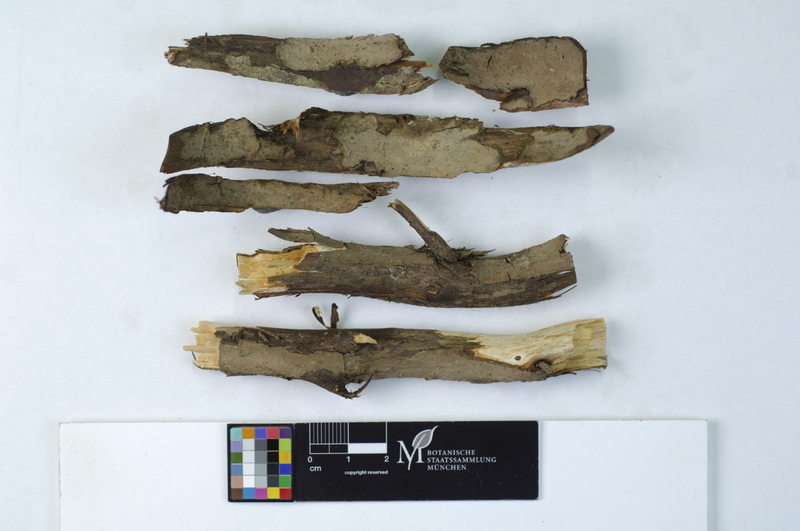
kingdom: Fungi
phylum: Basidiomycota
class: Agaricomycetes
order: Russulales
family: Echinodontiaceae
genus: Amylostereum
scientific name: Amylostereum laevigatum
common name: Yew duster
